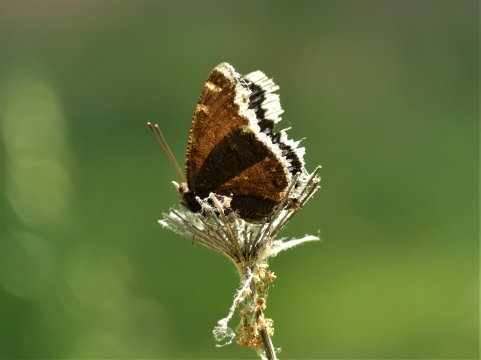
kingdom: Animalia
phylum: Arthropoda
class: Insecta
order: Lepidoptera
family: Nymphalidae
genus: Nymphalis
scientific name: Nymphalis antiopa
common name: Mourning Cloak
